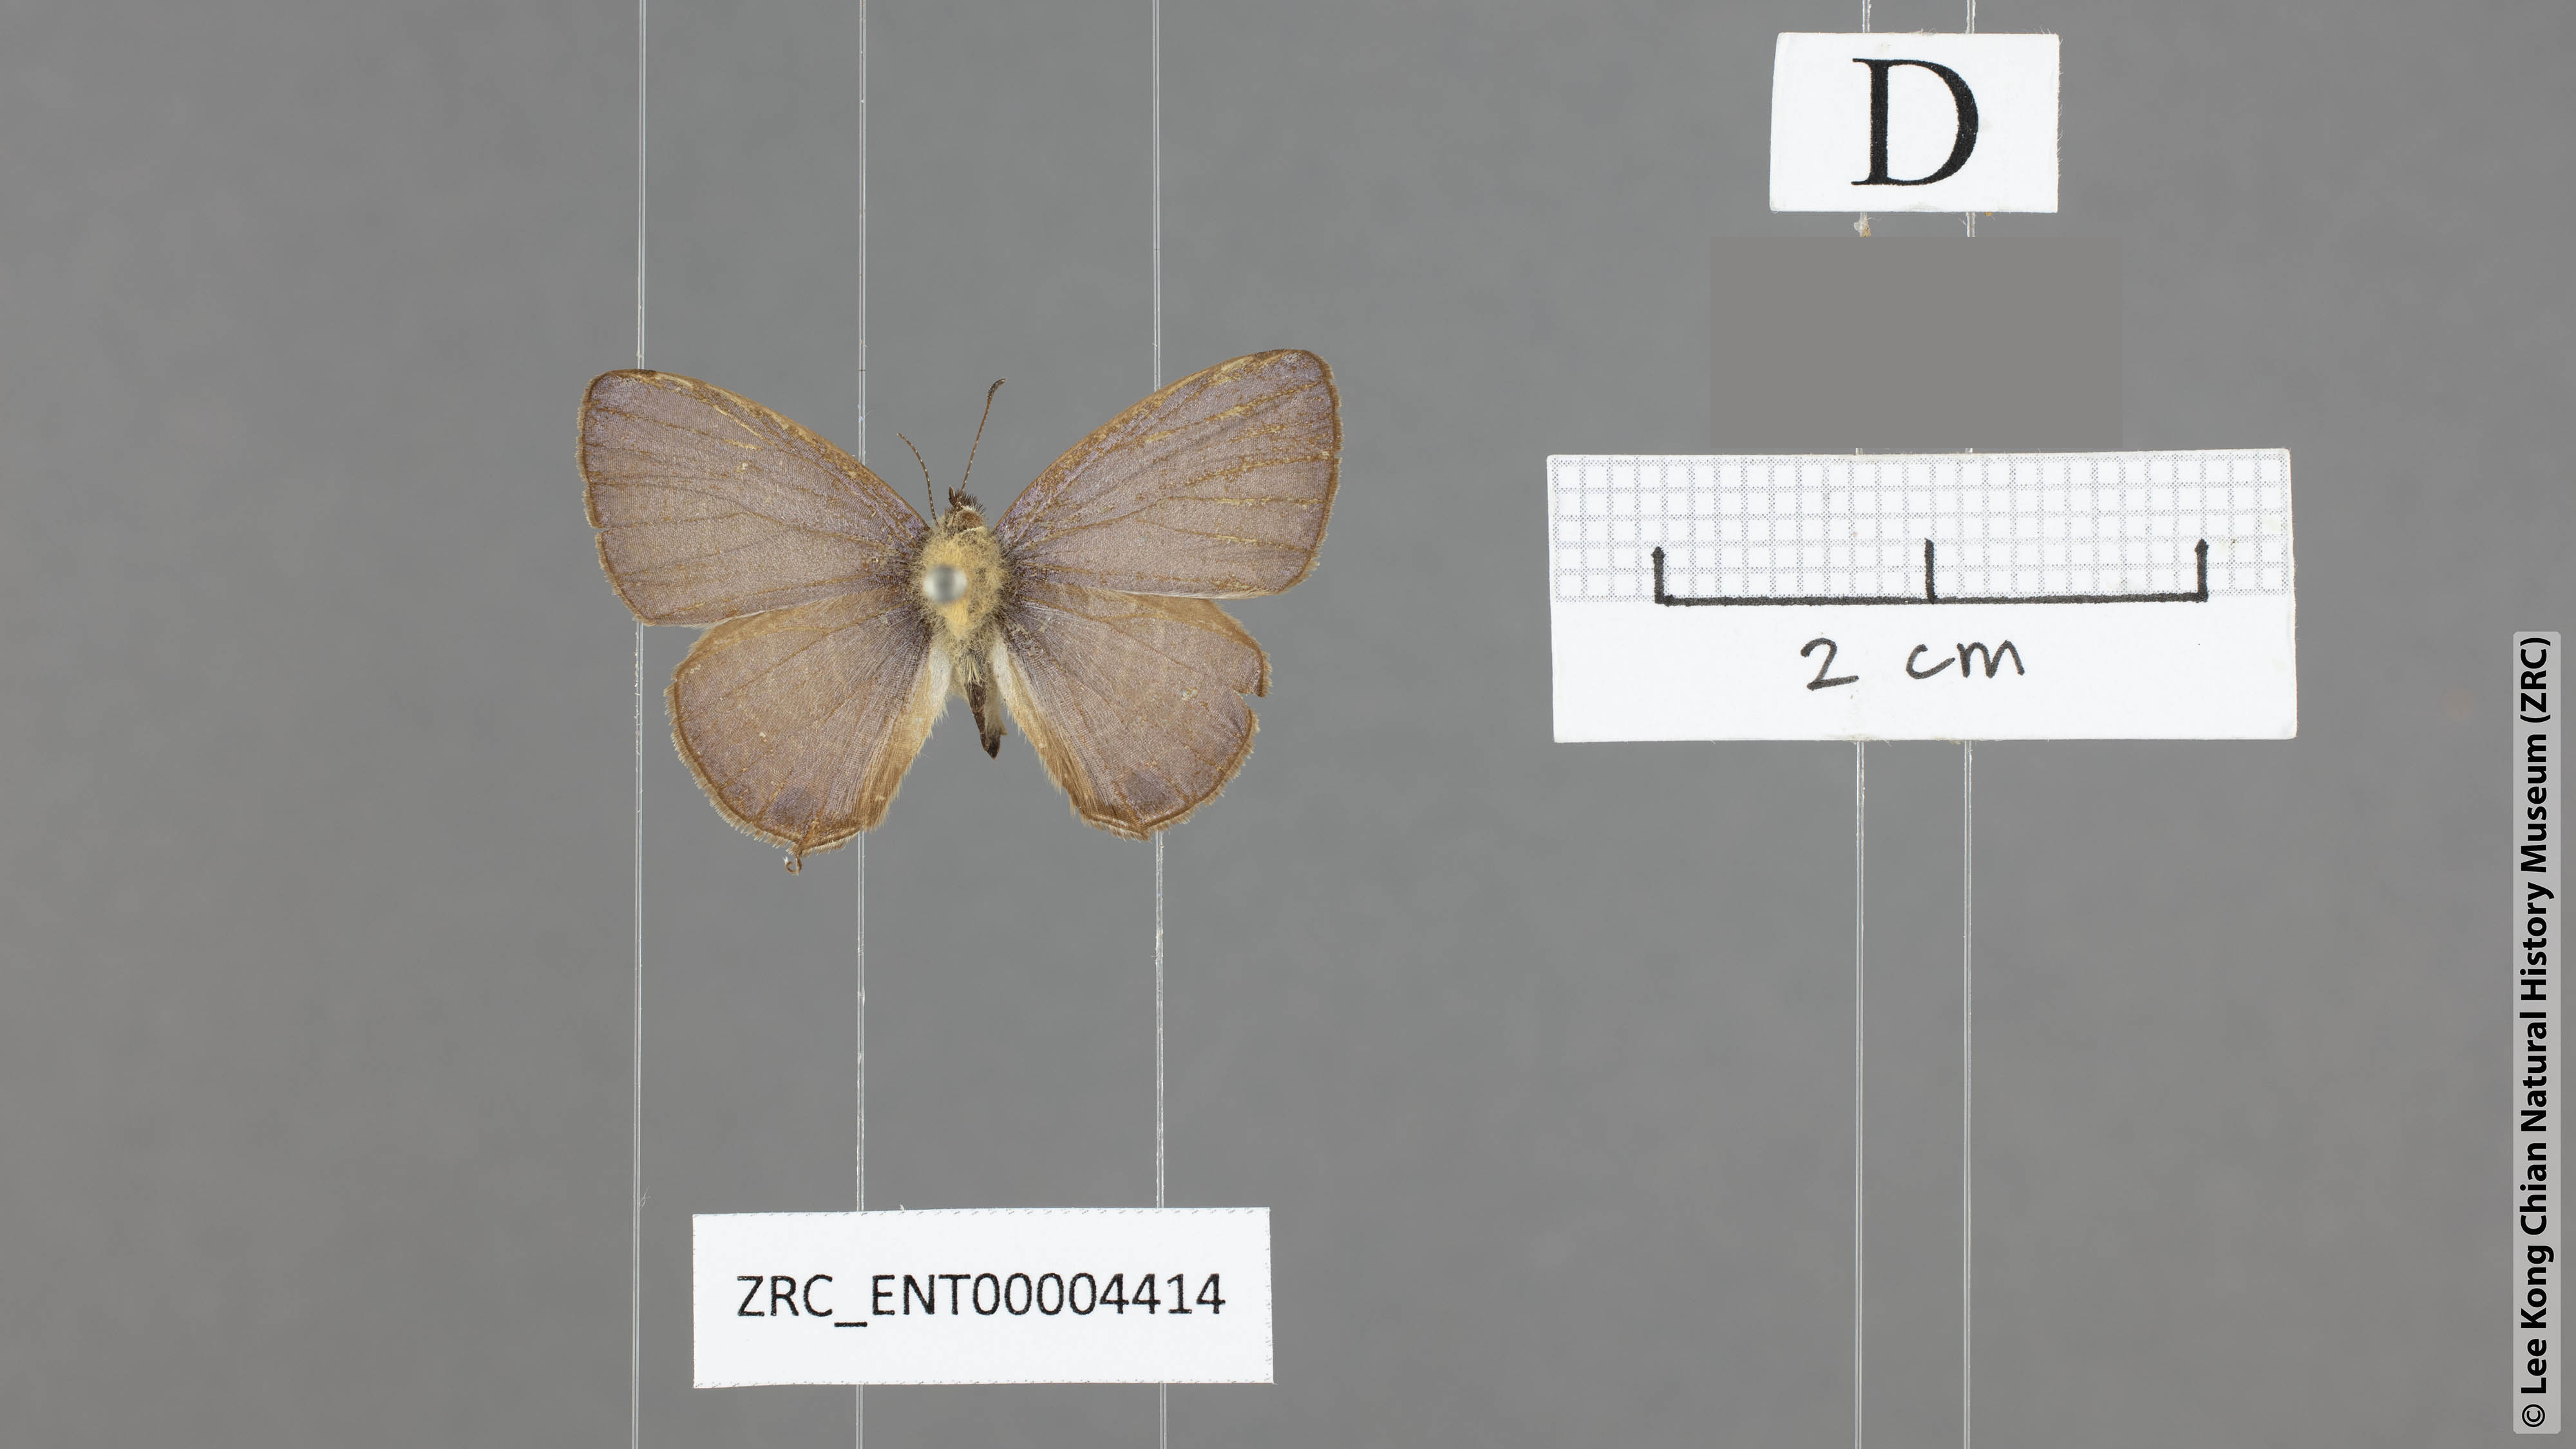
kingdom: Animalia
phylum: Arthropoda
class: Insecta
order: Lepidoptera
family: Lycaenidae
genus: Nacaduba
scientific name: Nacaduba solta
